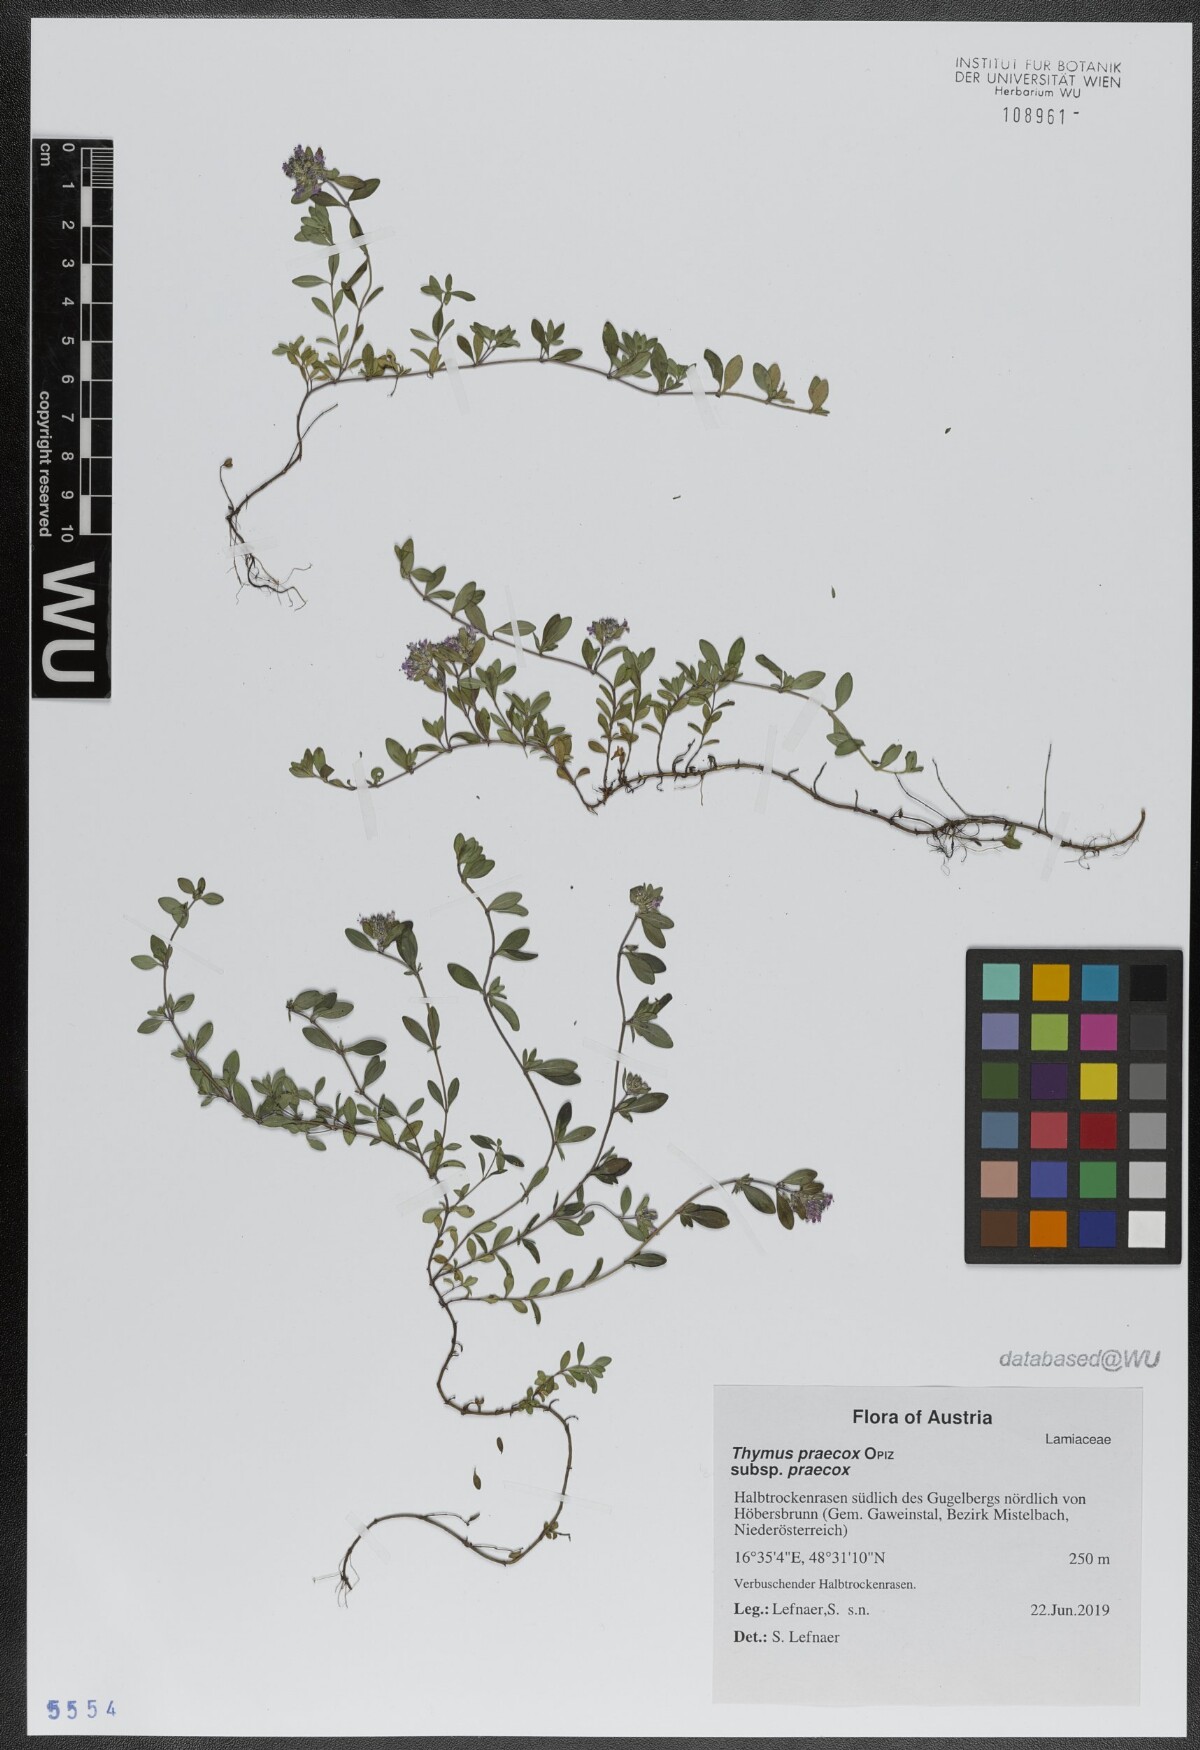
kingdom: Plantae
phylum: Tracheophyta
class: Magnoliopsida
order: Lamiales
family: Lamiaceae
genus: Thymus
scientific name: Thymus praecox
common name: Wild thyme
